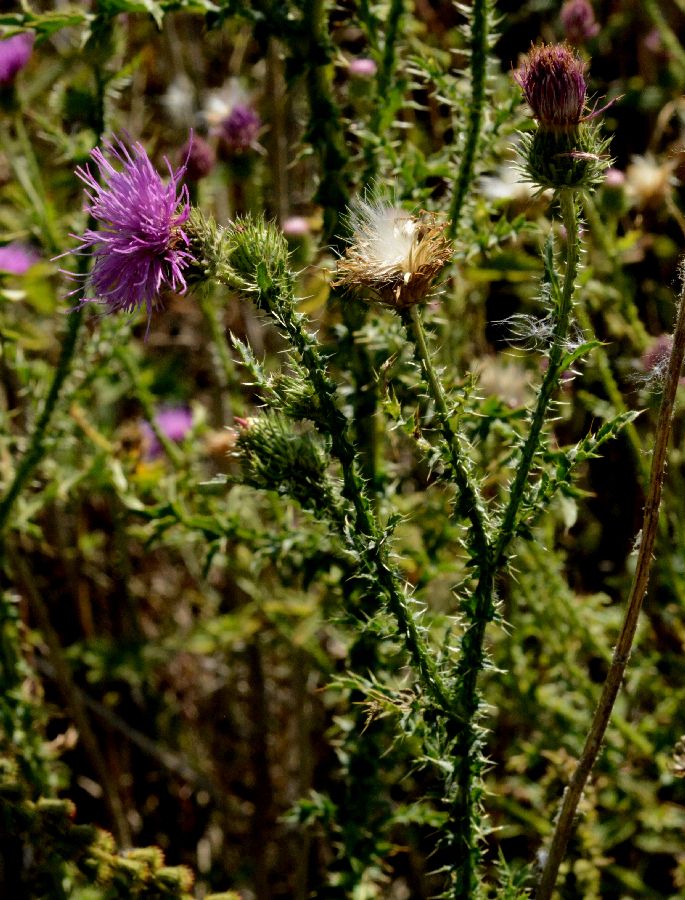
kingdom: Plantae
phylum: Tracheophyta
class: Magnoliopsida
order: Asterales
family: Asteraceae
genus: Carduus
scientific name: Carduus crispus
